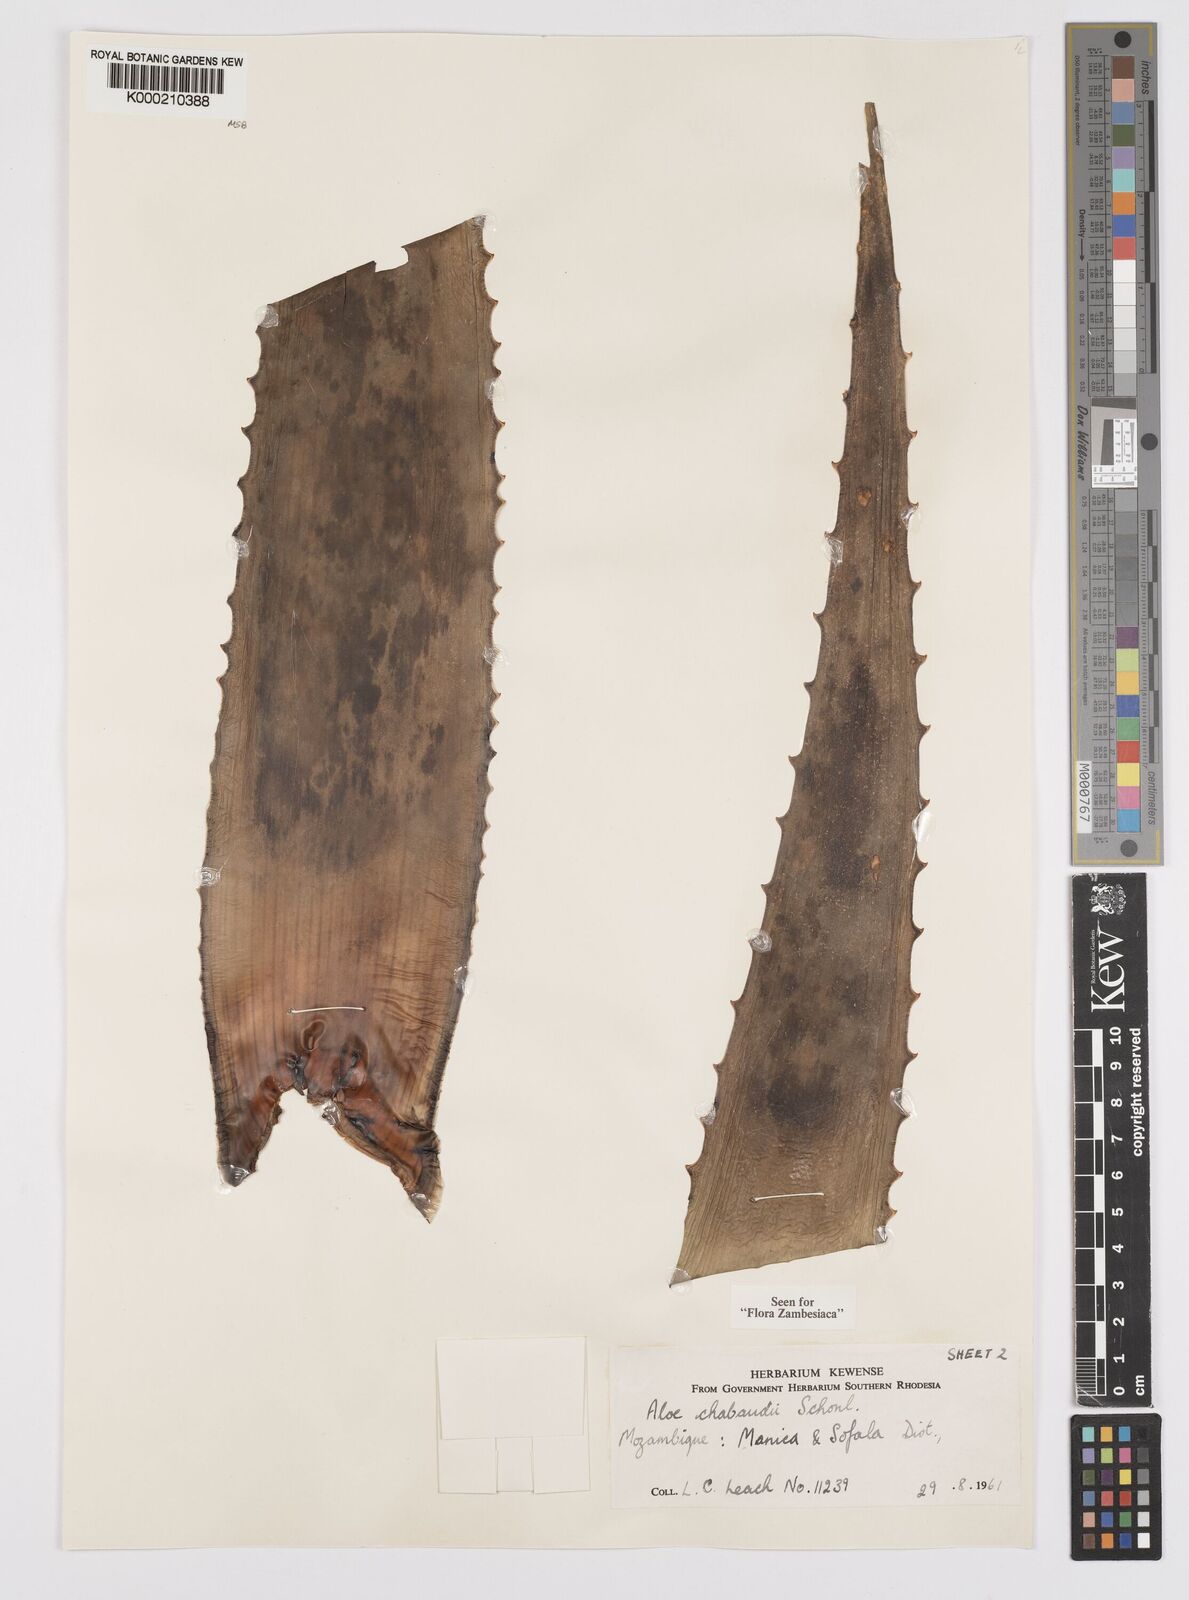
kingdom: Plantae
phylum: Tracheophyta
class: Liliopsida
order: Asparagales
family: Asphodelaceae
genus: Aloe
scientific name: Aloe chabaudii
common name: Chabaud's aloe
